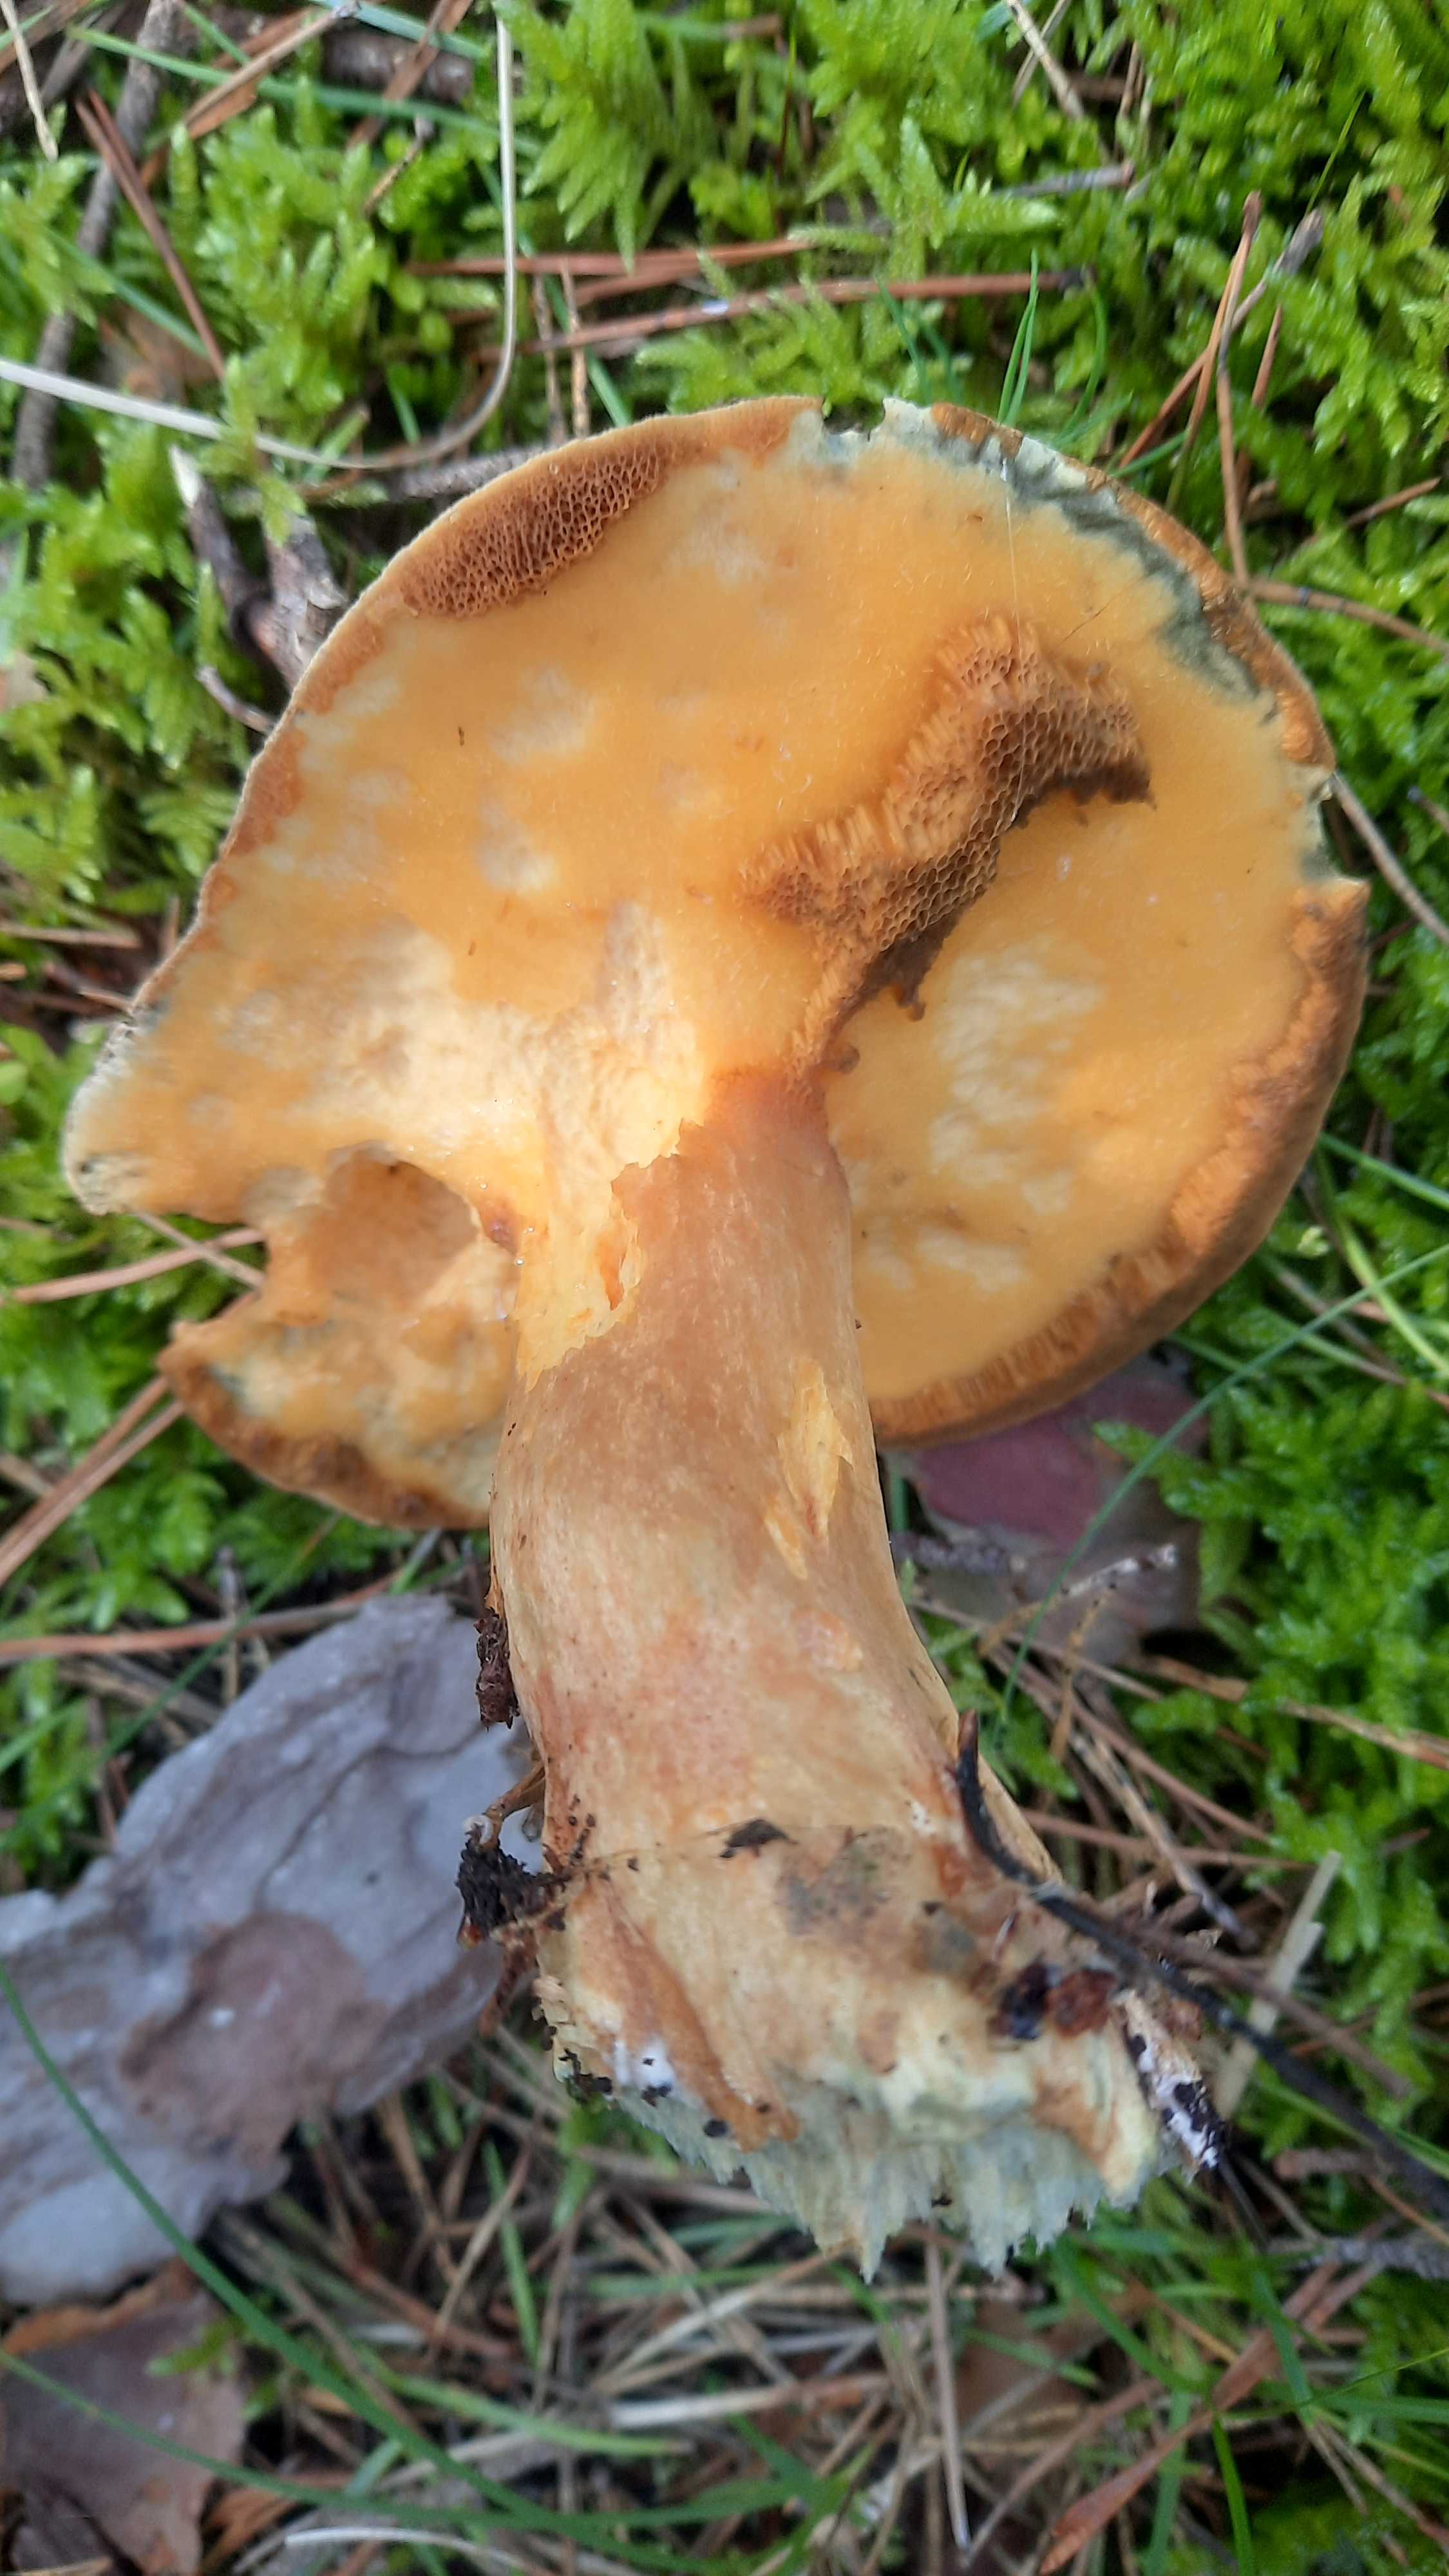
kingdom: Fungi
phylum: Basidiomycota
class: Agaricomycetes
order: Boletales
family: Suillaceae
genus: Suillus
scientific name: Suillus variegatus
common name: broget slimrørhat
